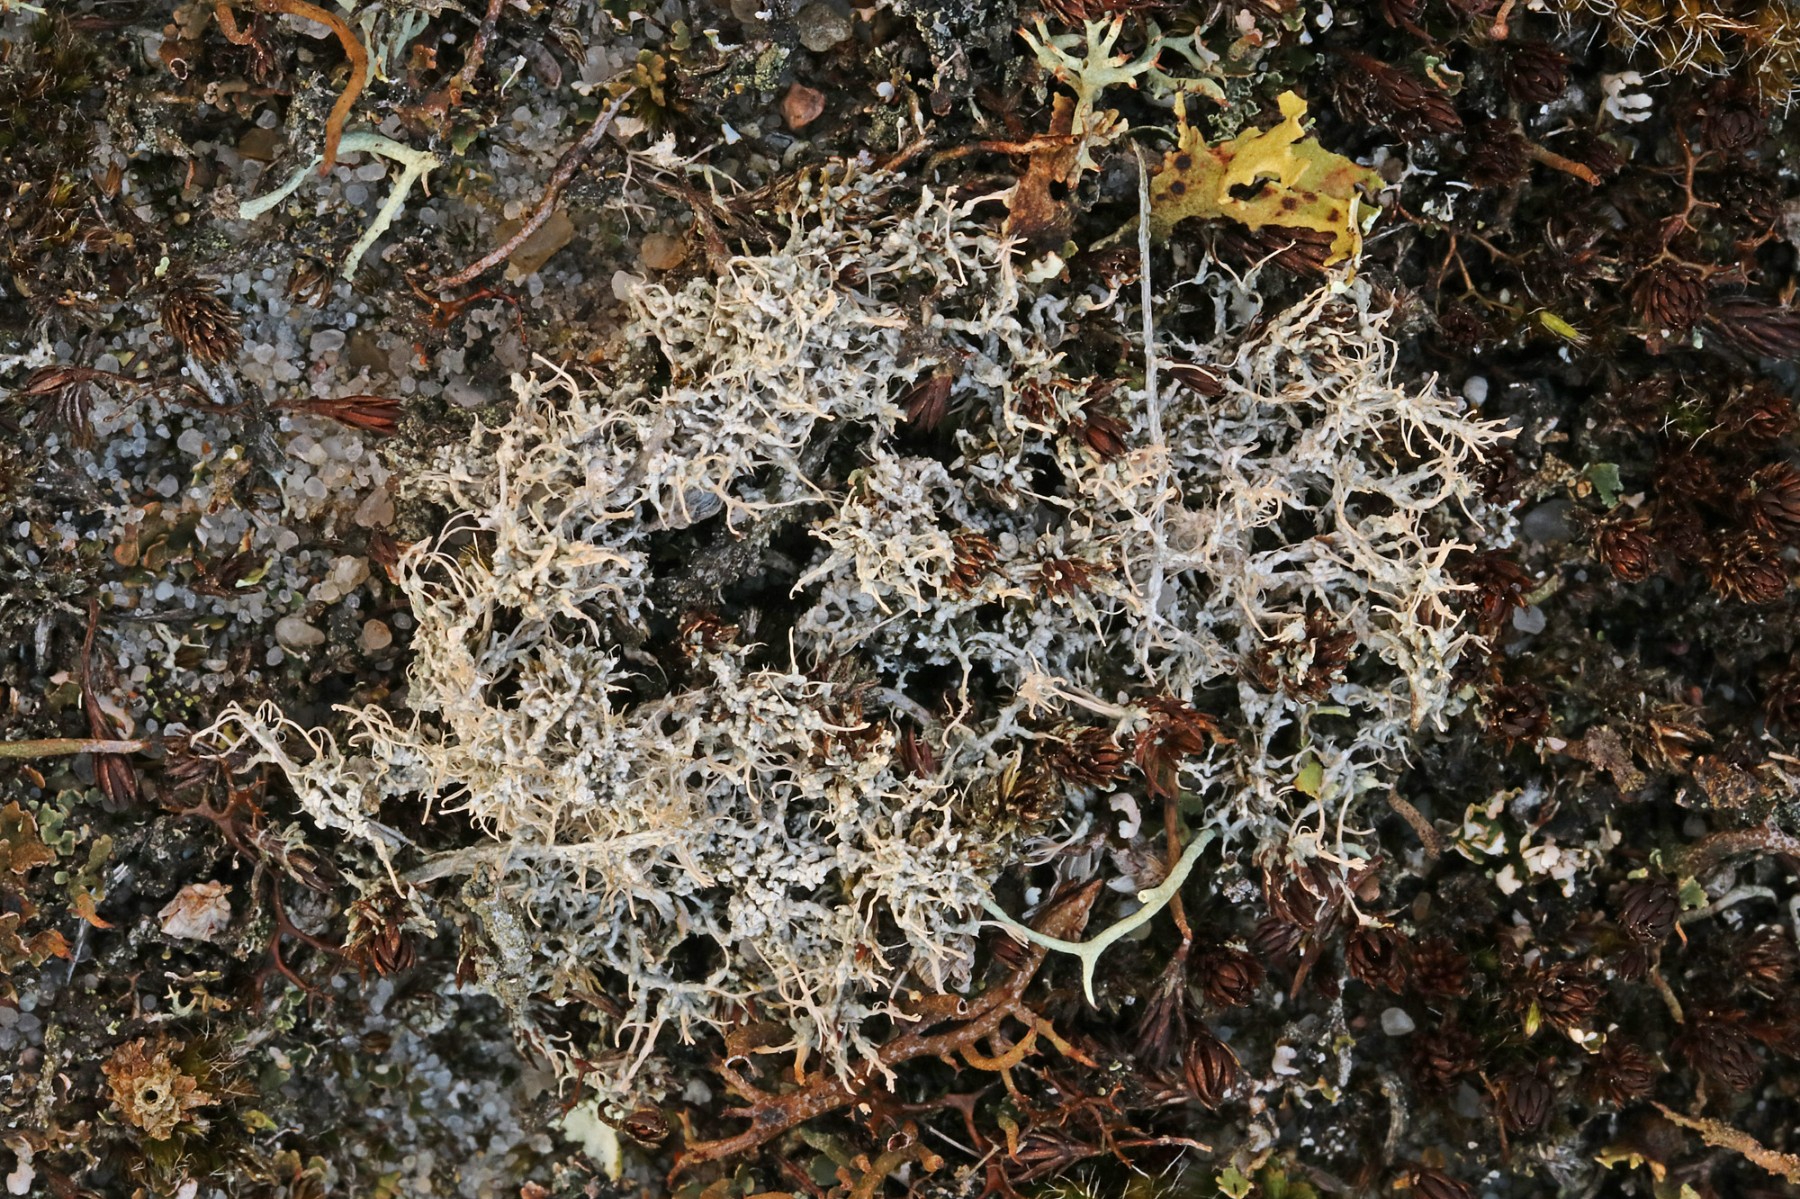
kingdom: Fungi
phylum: Ascomycota
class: Lecanoromycetes
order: Pertusariales
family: Ochrolechiaceae
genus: Ochrolechia
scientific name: Ochrolechia frigida
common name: fjeld-blegskivelav
